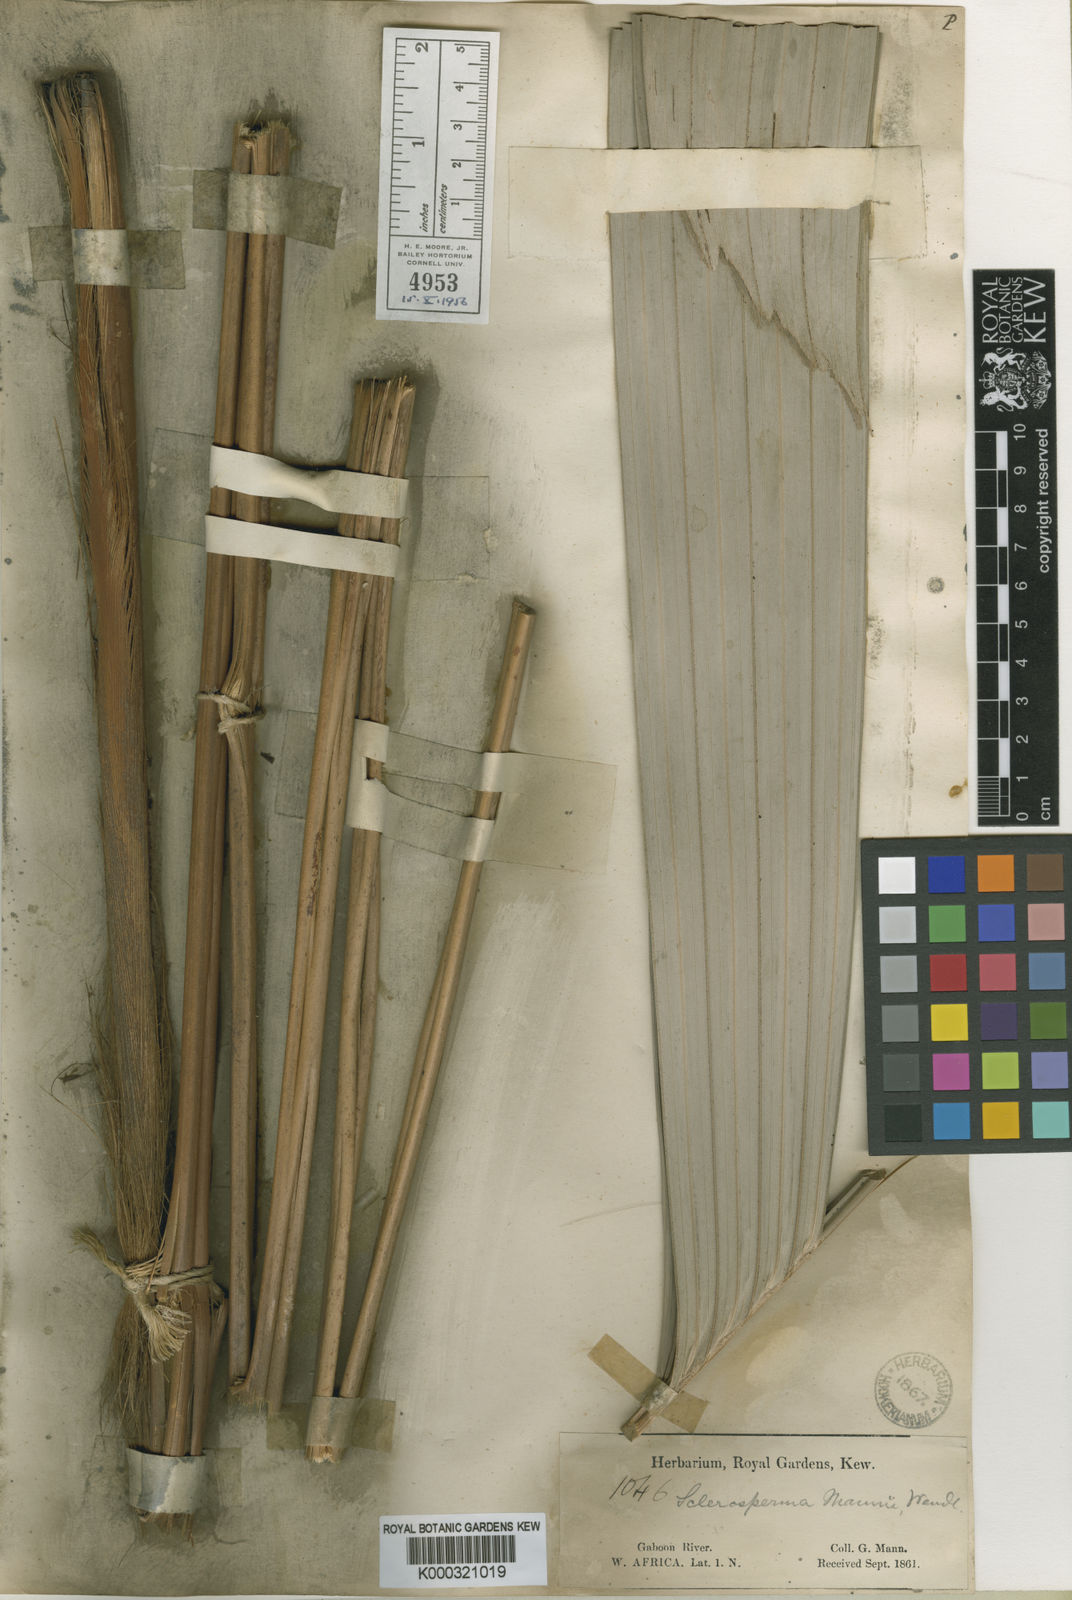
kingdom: Plantae
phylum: Tracheophyta
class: Liliopsida
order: Arecales
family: Arecaceae
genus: Sclerosperma
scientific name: Sclerosperma mannii
